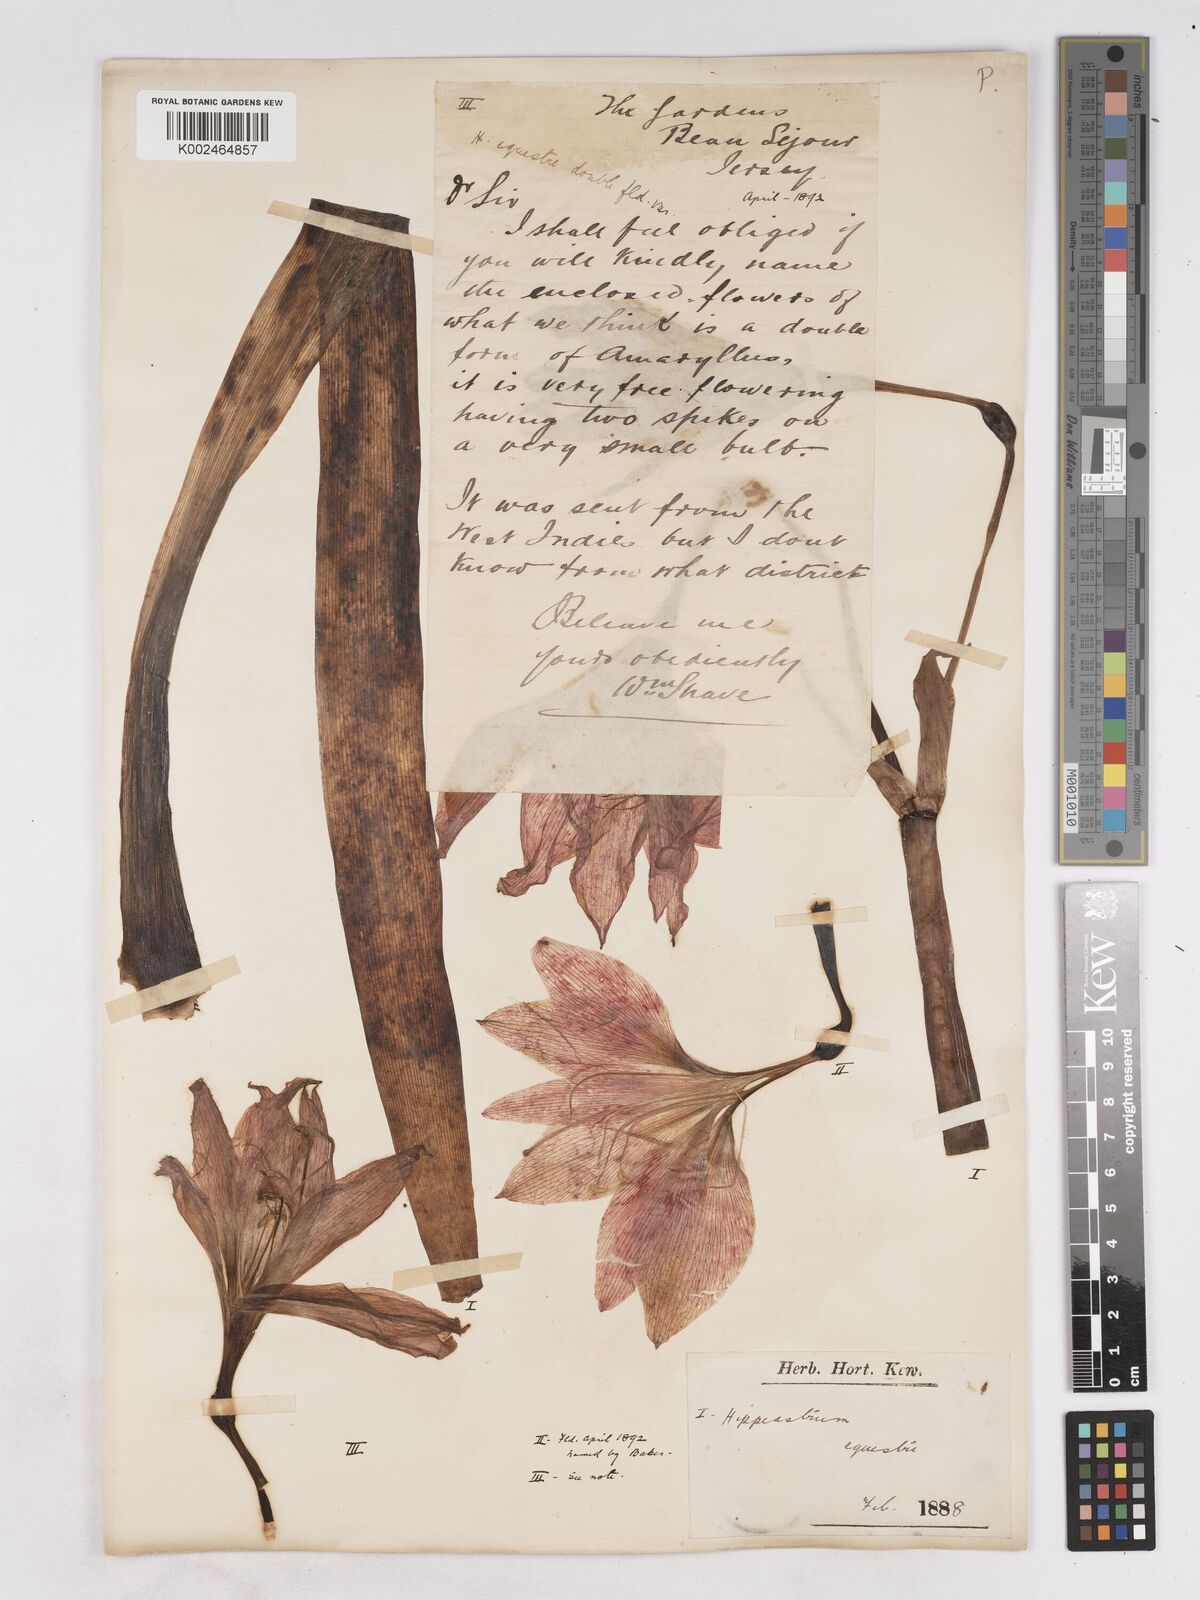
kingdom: Plantae
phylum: Tracheophyta
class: Liliopsida
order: Asparagales
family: Amaryllidaceae
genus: Hippeastrum
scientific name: Hippeastrum puniceum
